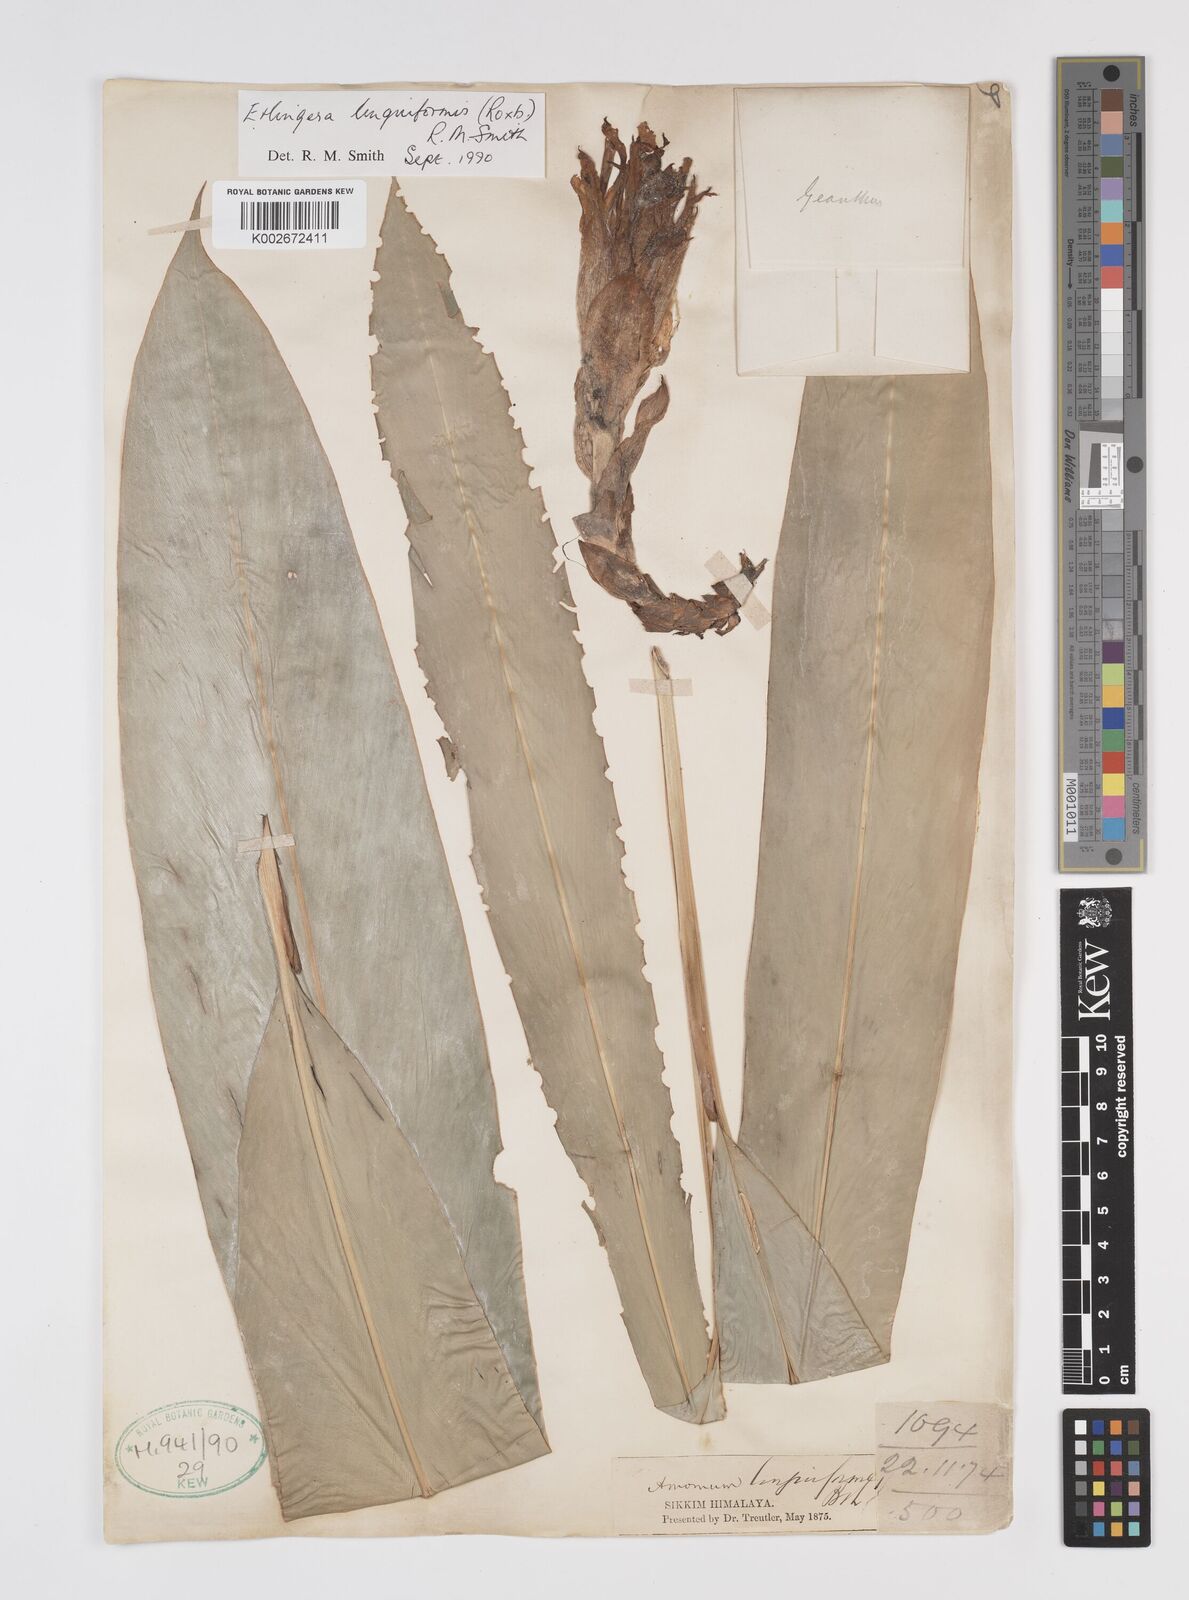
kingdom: Plantae
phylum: Tracheophyta
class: Liliopsida
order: Zingiberales
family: Zingiberaceae
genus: Etlingera
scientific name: Etlingera linguiformis
